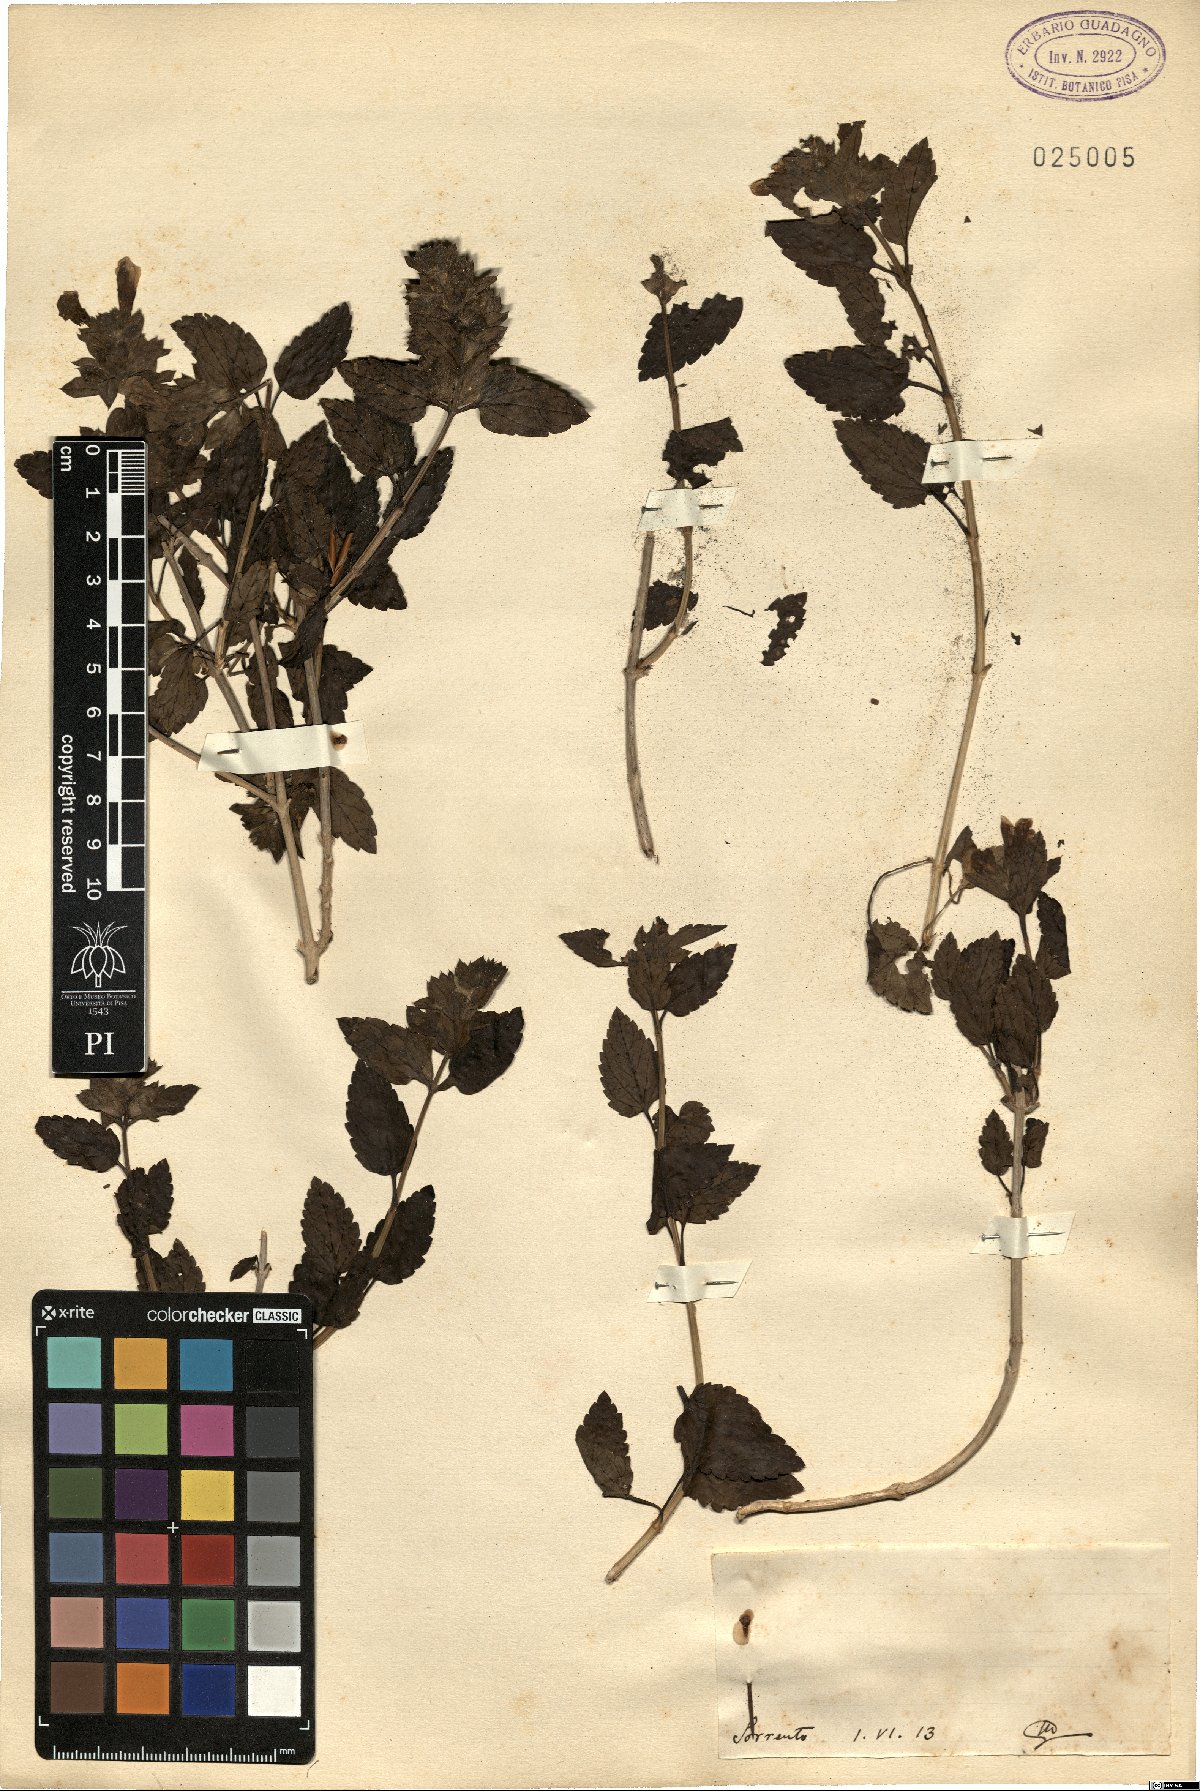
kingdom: Plantae
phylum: Tracheophyta
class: Magnoliopsida
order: Lamiales
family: Lamiaceae
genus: Prasium
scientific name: Prasium
